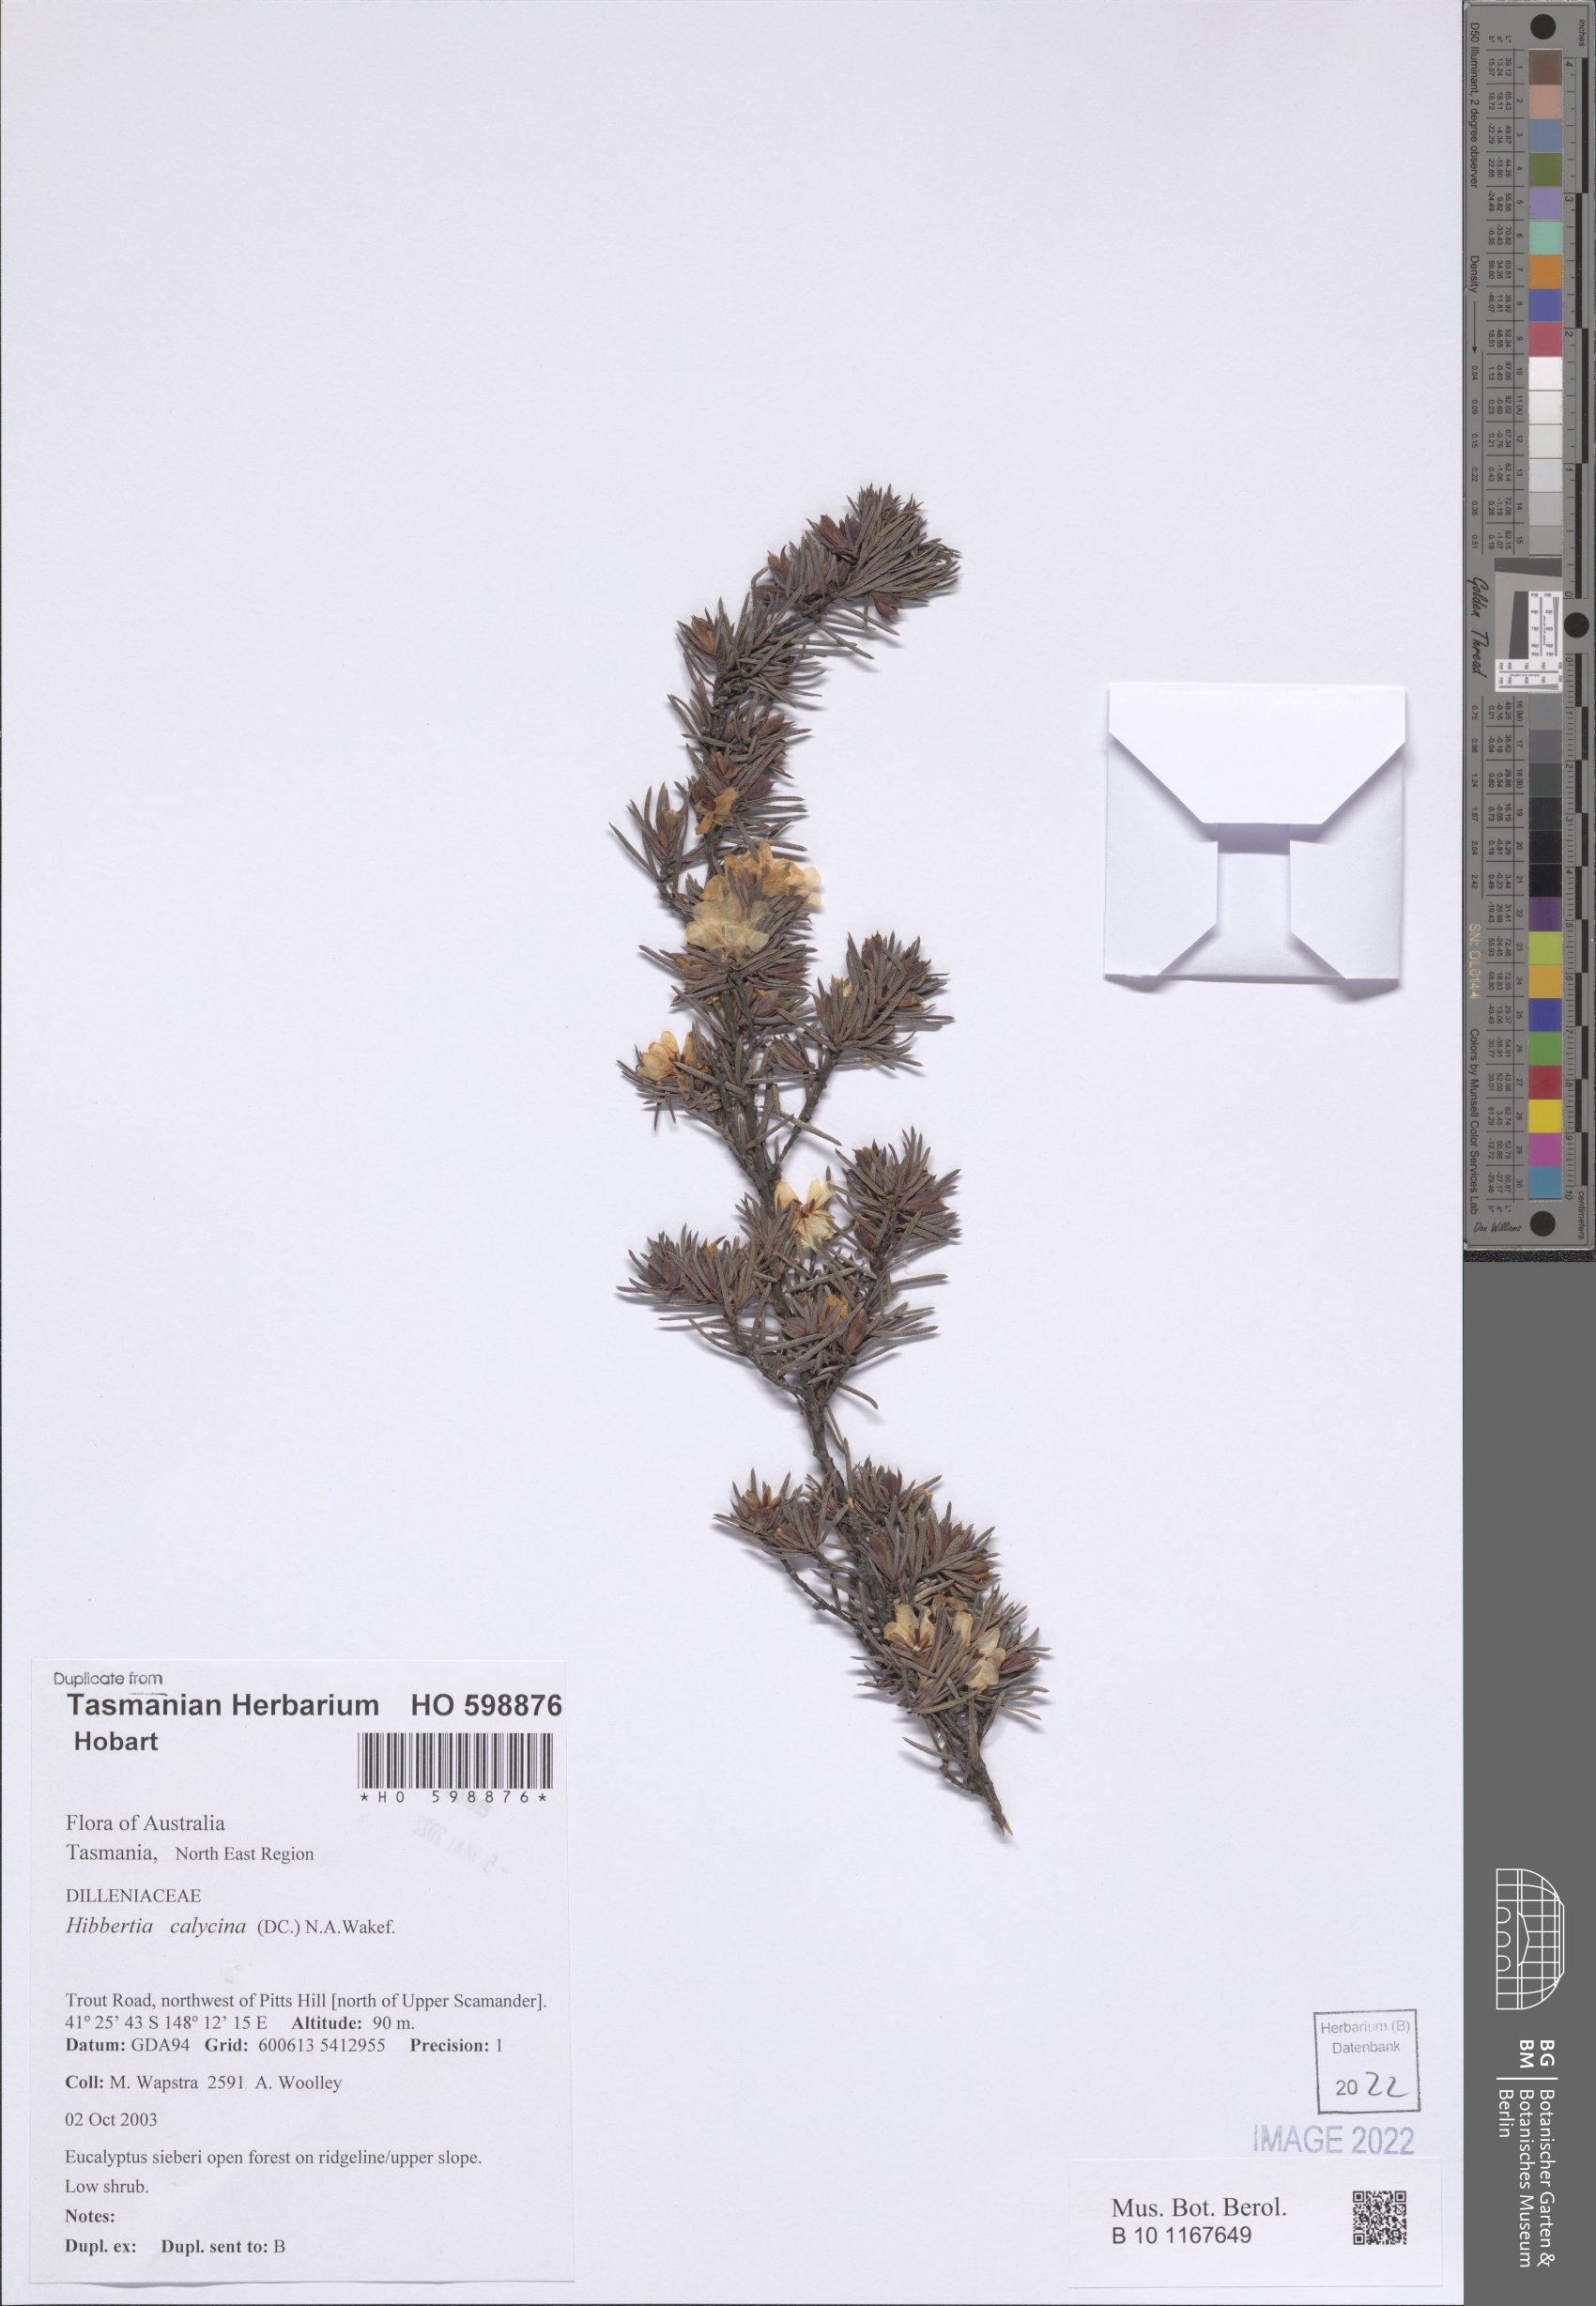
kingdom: Plantae
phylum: Tracheophyta
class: Magnoliopsida
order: Dilleniales
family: Dilleniaceae
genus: Hibbertia
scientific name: Hibbertia calycina
